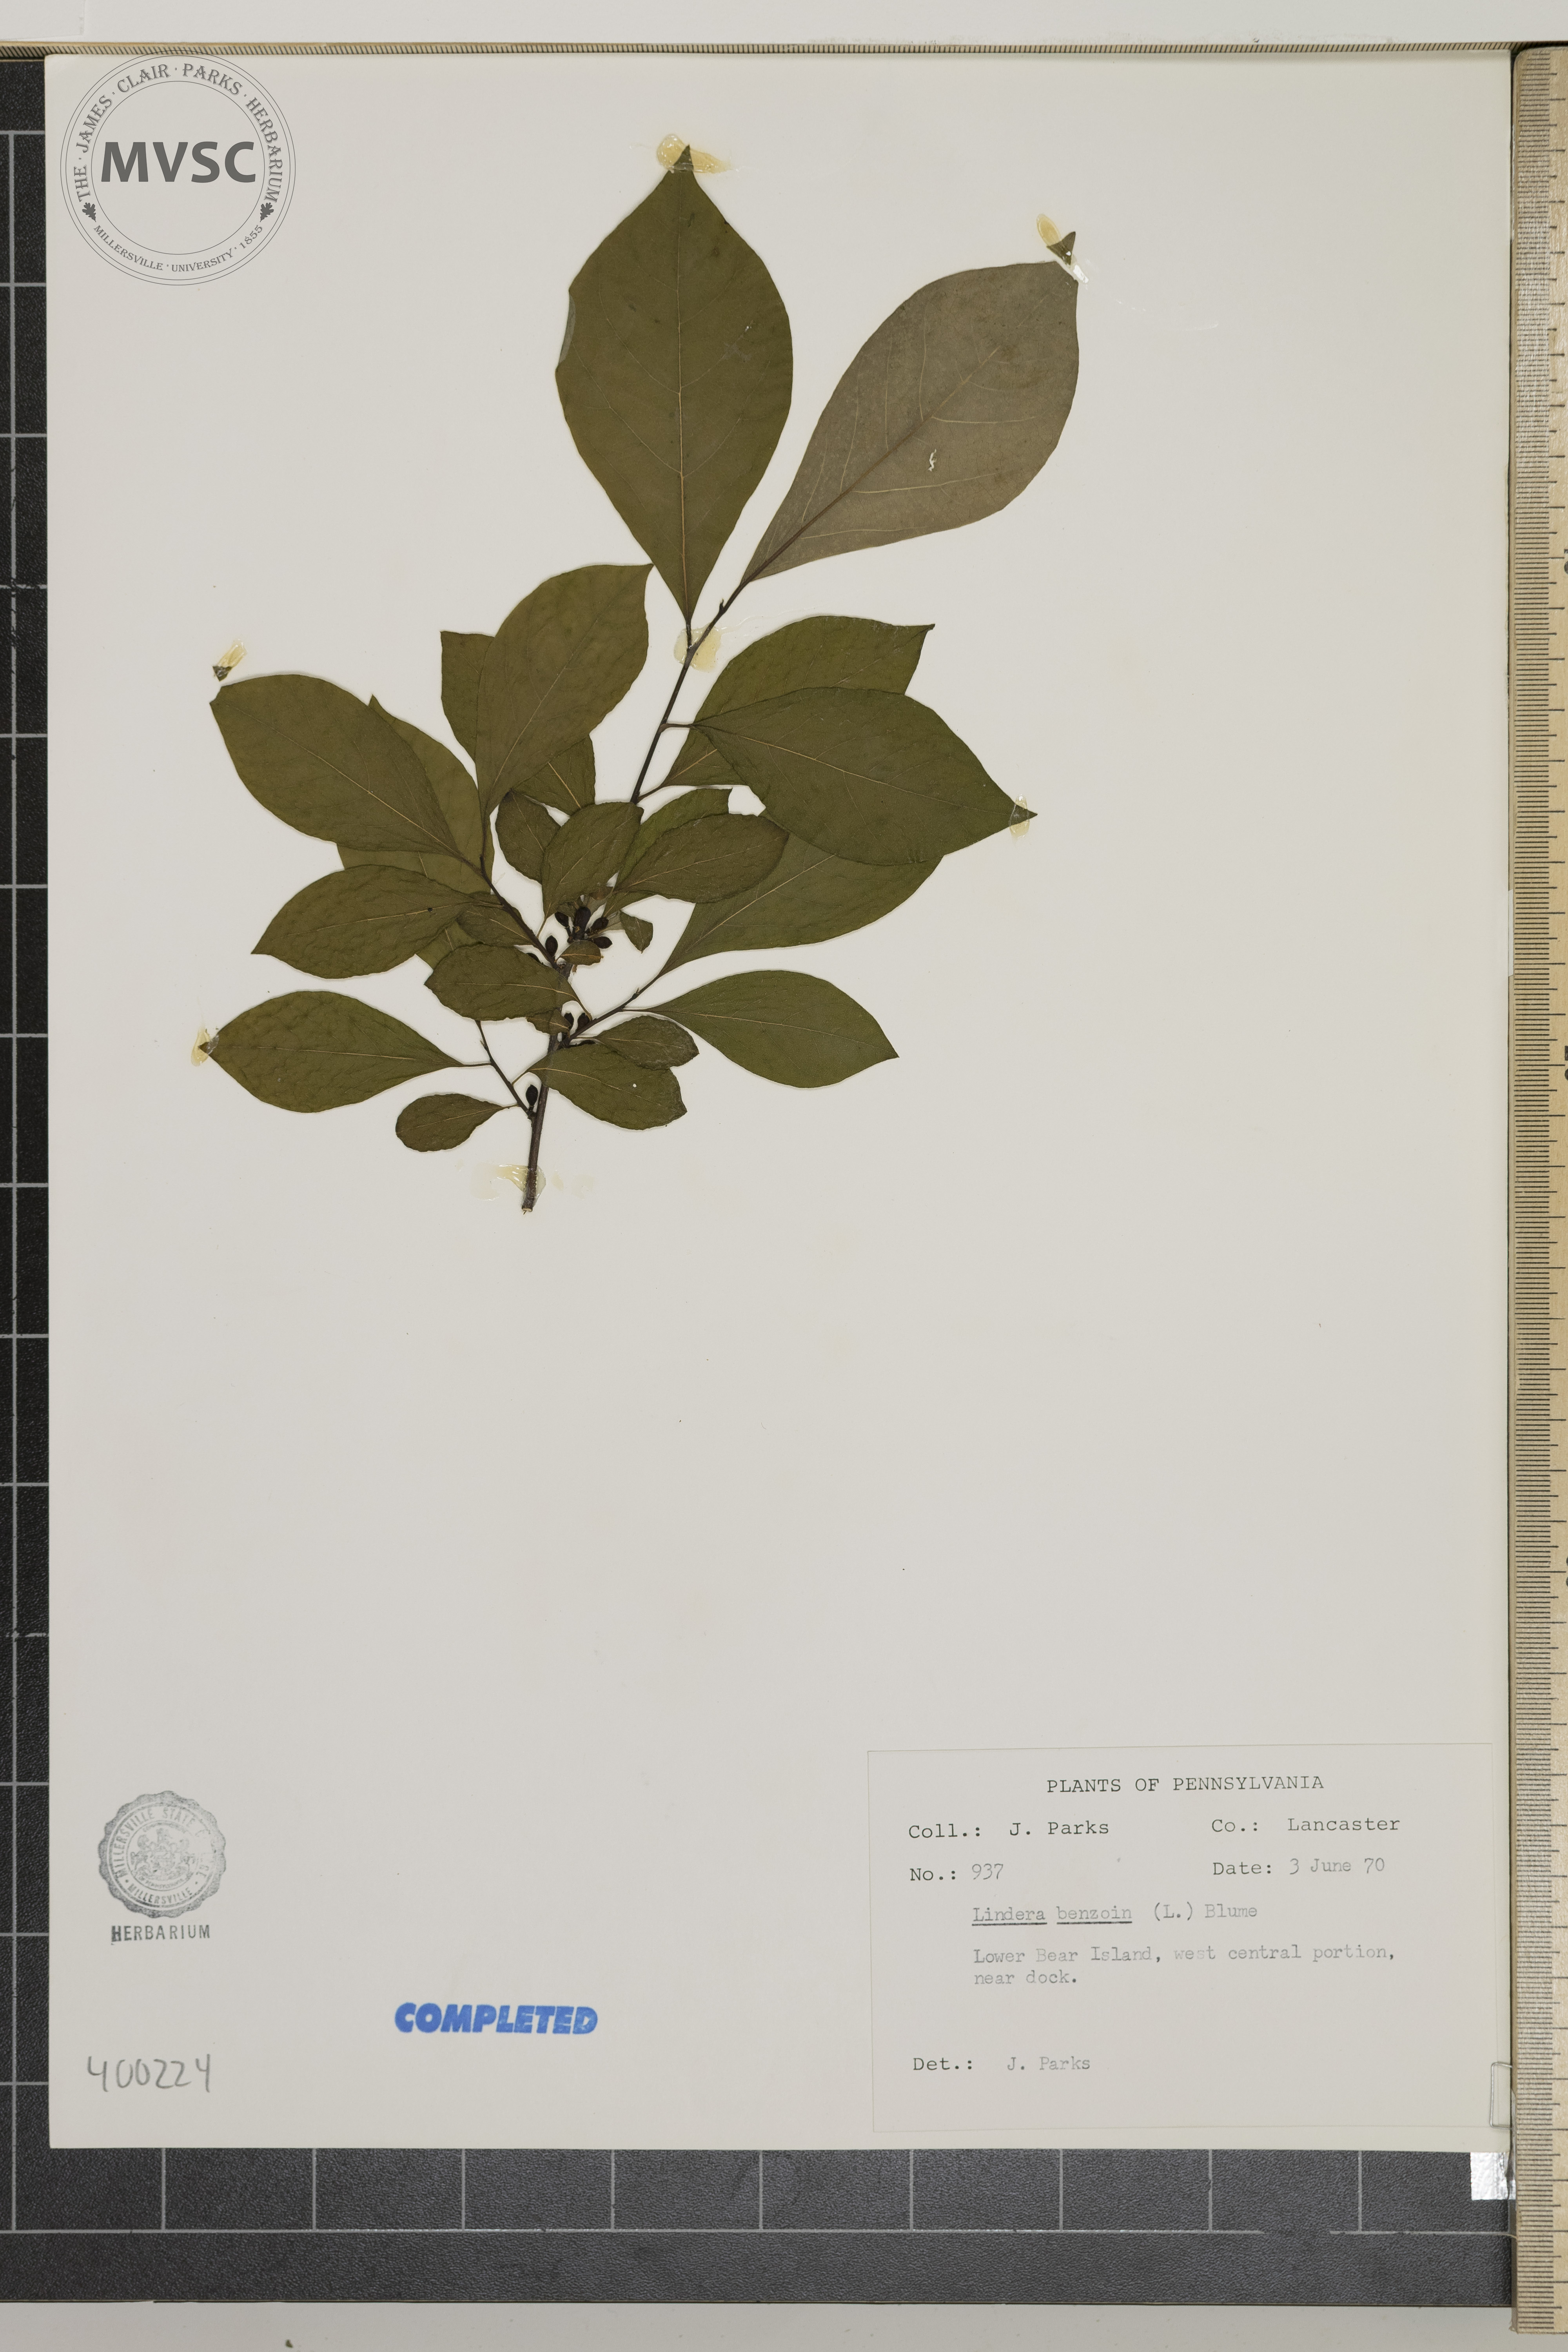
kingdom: Plantae
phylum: Tracheophyta
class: Magnoliopsida
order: Laurales
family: Lauraceae
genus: Lindera
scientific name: Lindera benzoin
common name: spicebush
